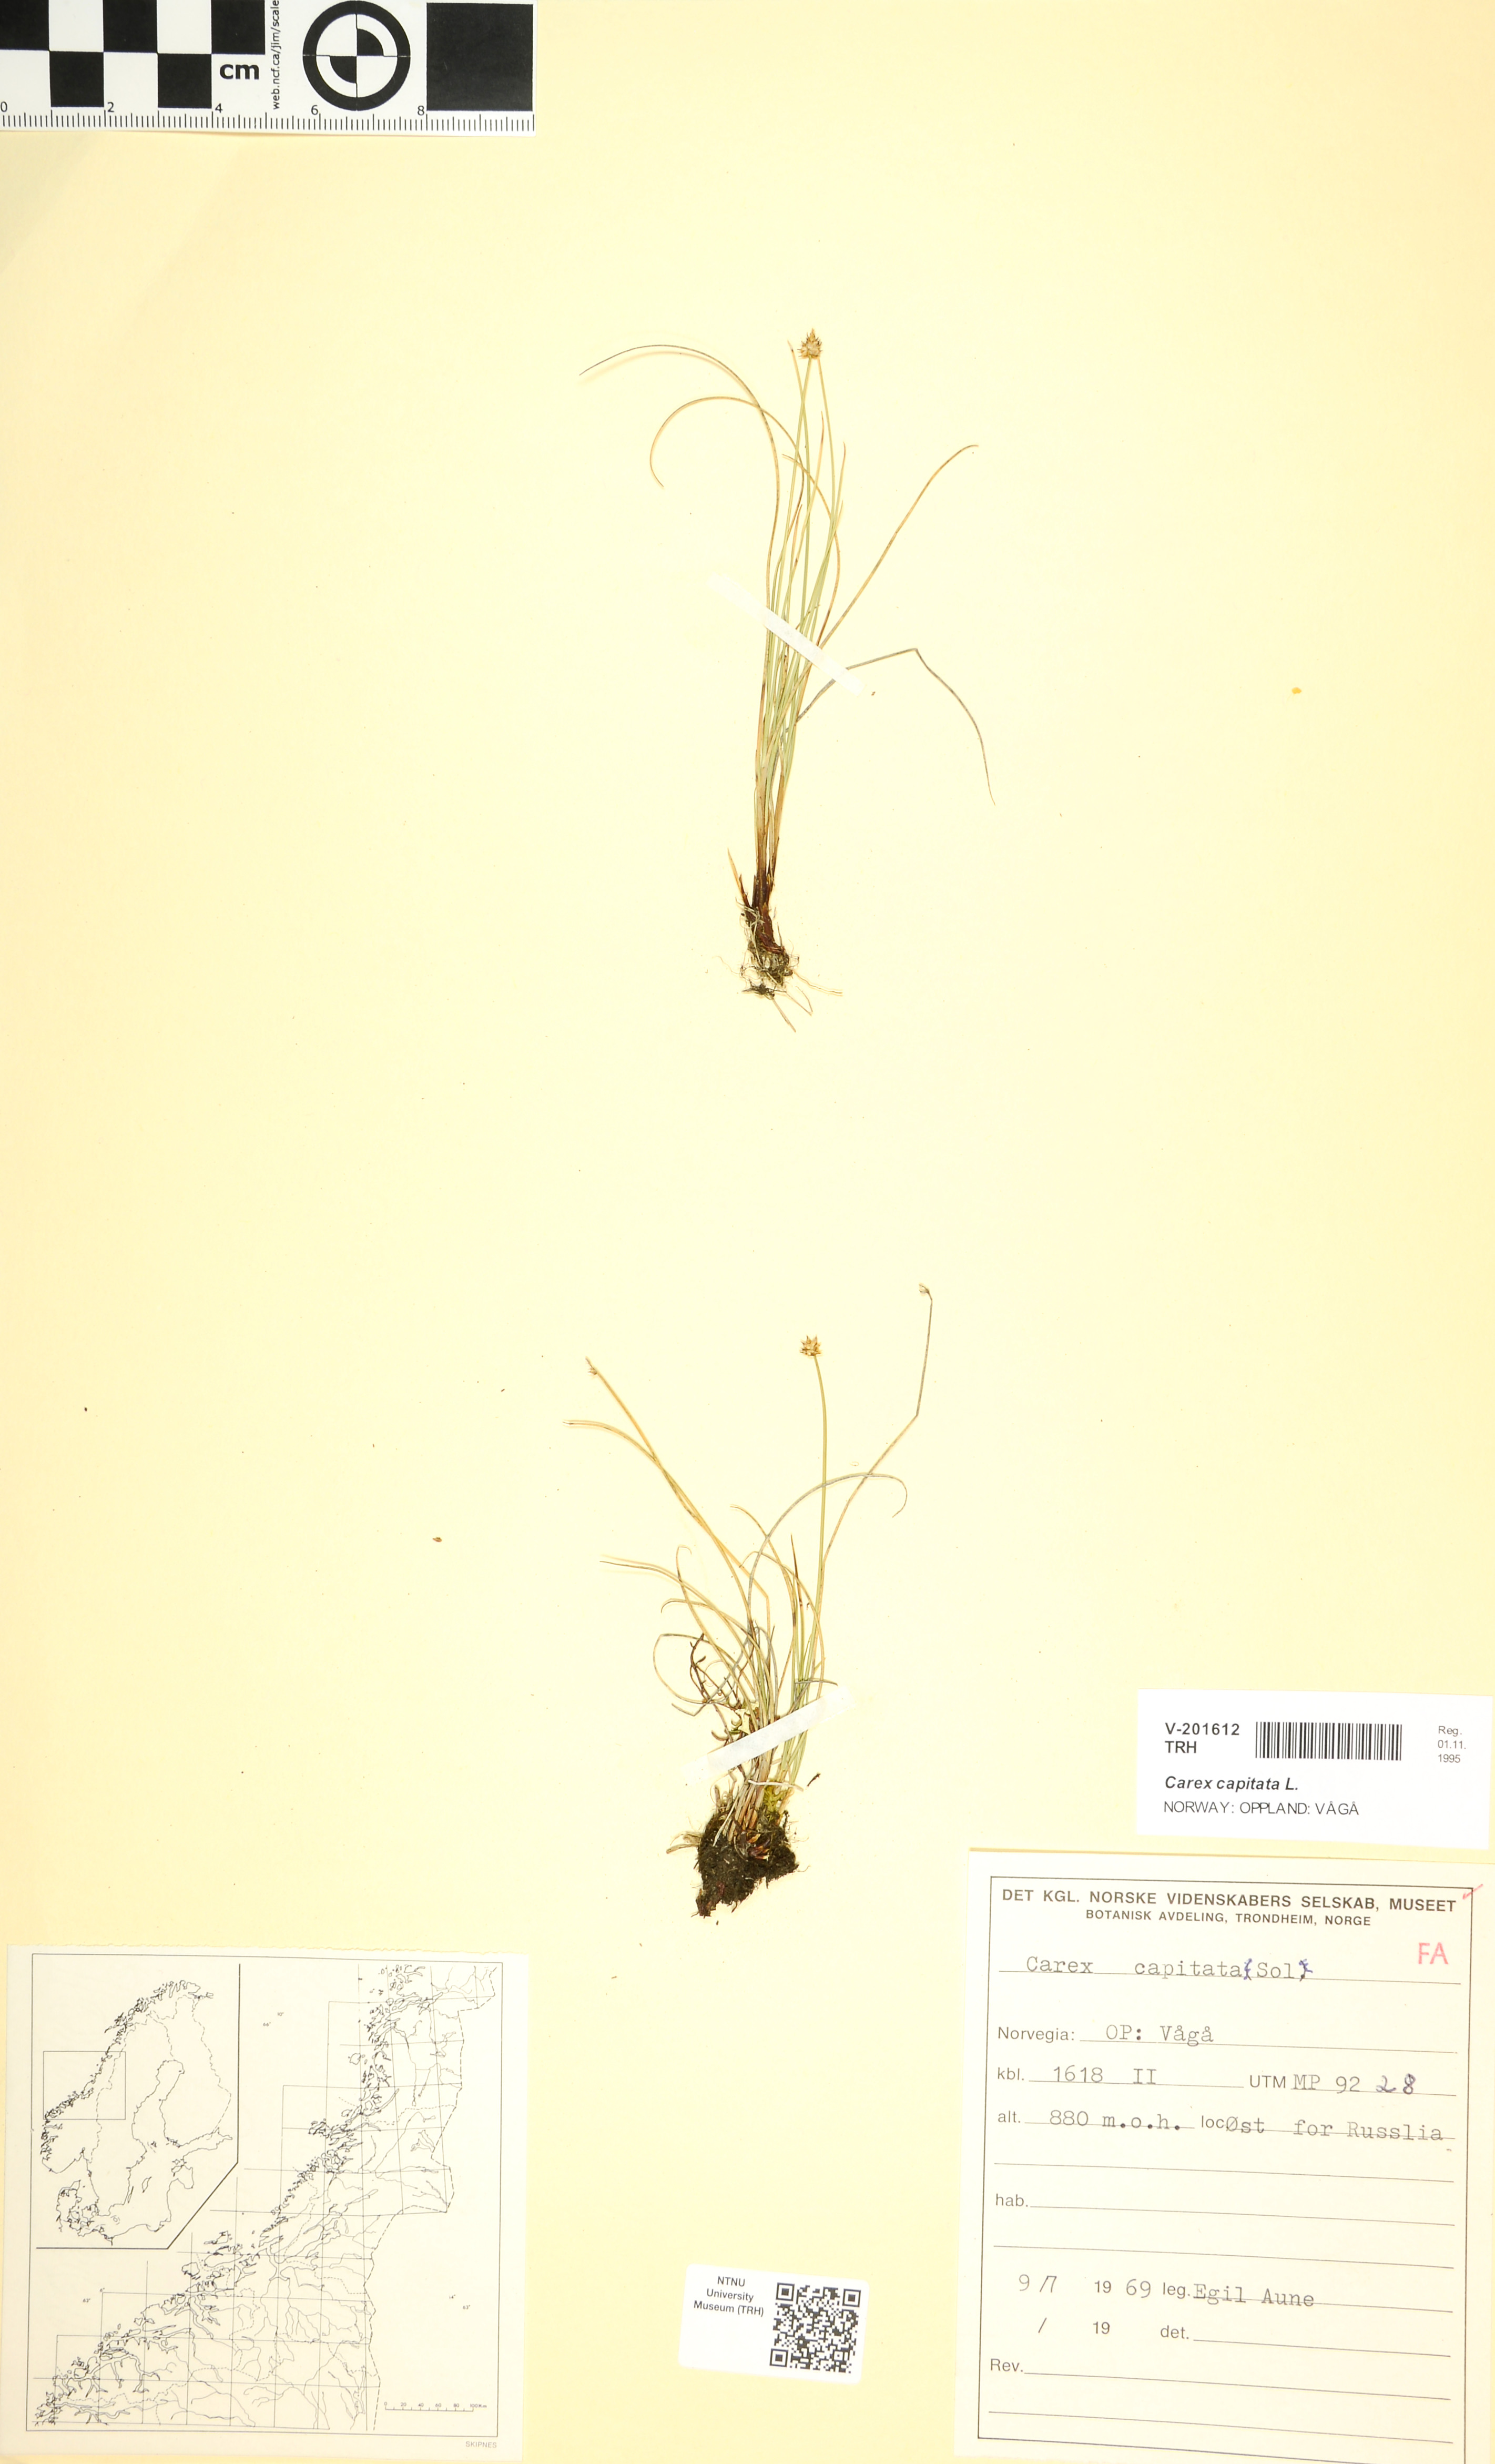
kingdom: Plantae
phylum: Tracheophyta
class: Liliopsida
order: Poales
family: Cyperaceae
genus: Carex
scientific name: Carex capitata
